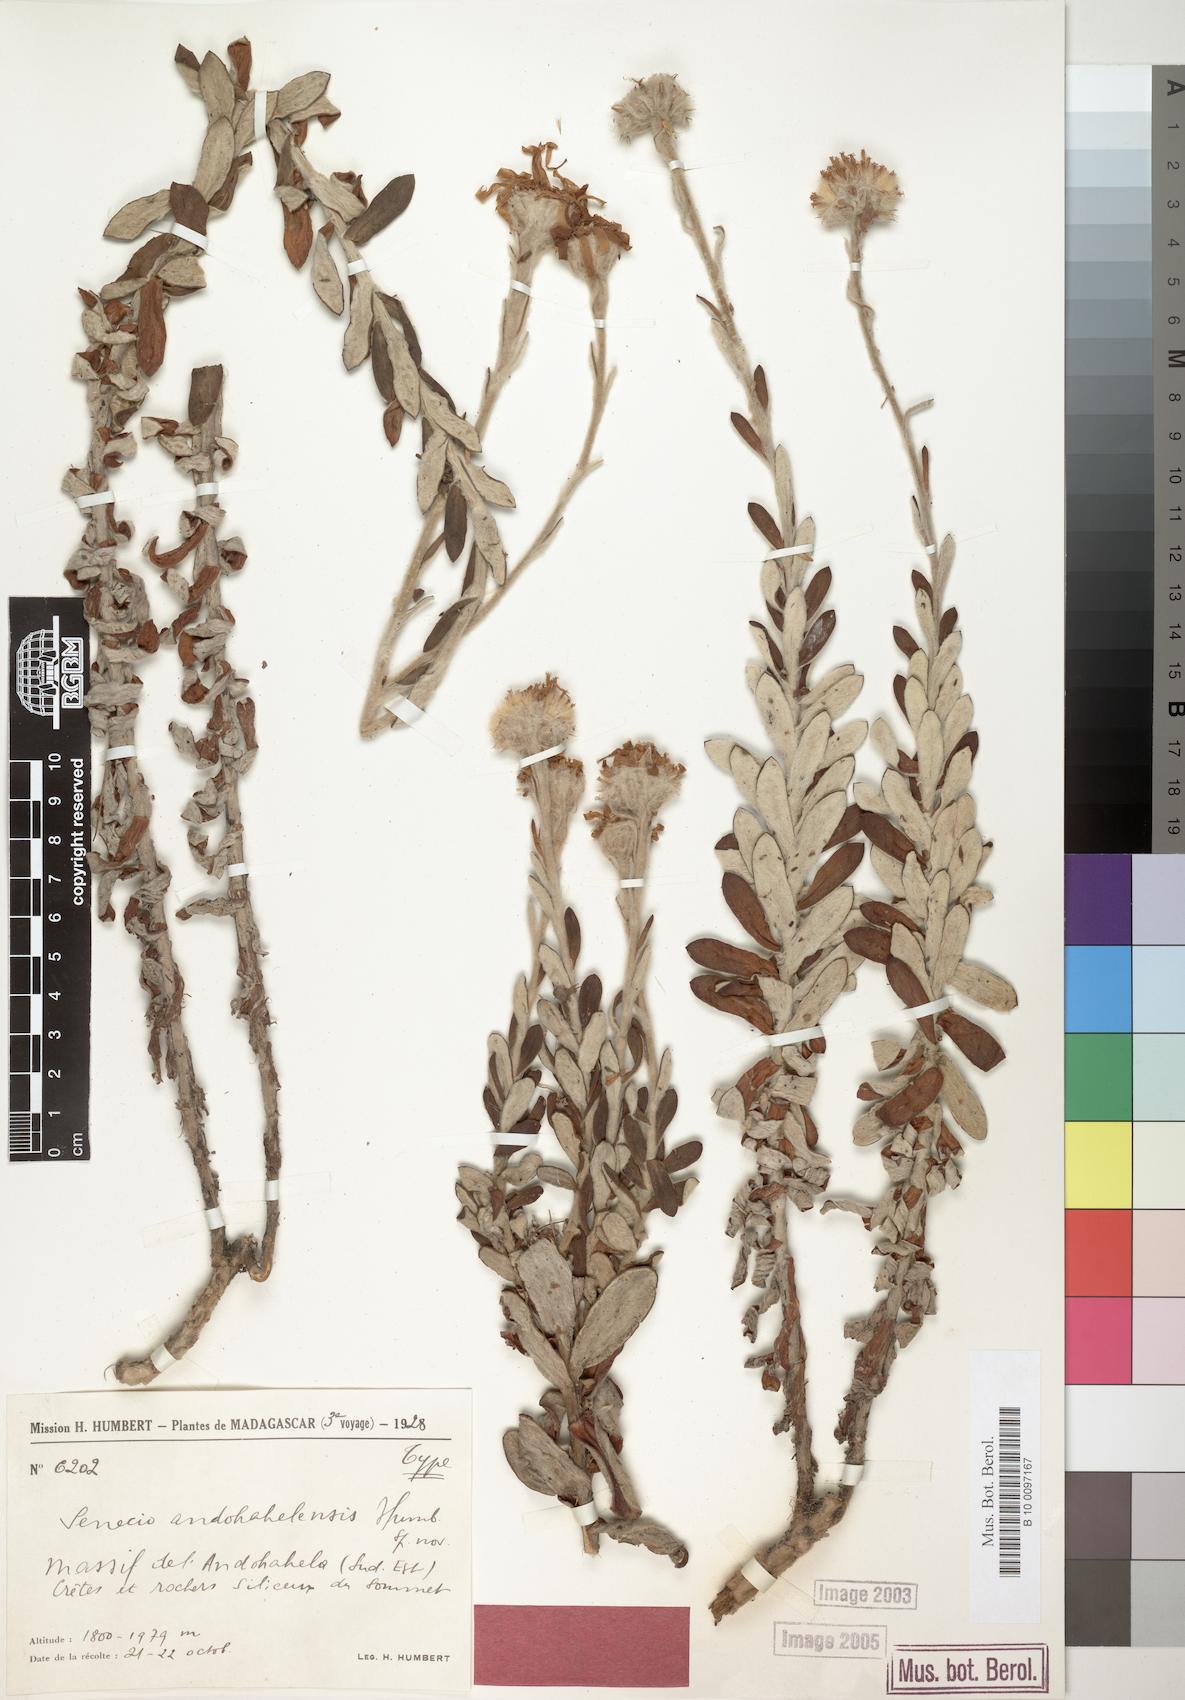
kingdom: Plantae
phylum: Tracheophyta
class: Magnoliopsida
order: Asterales
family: Asteraceae
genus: Senecio
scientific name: Senecio andohahelensis
